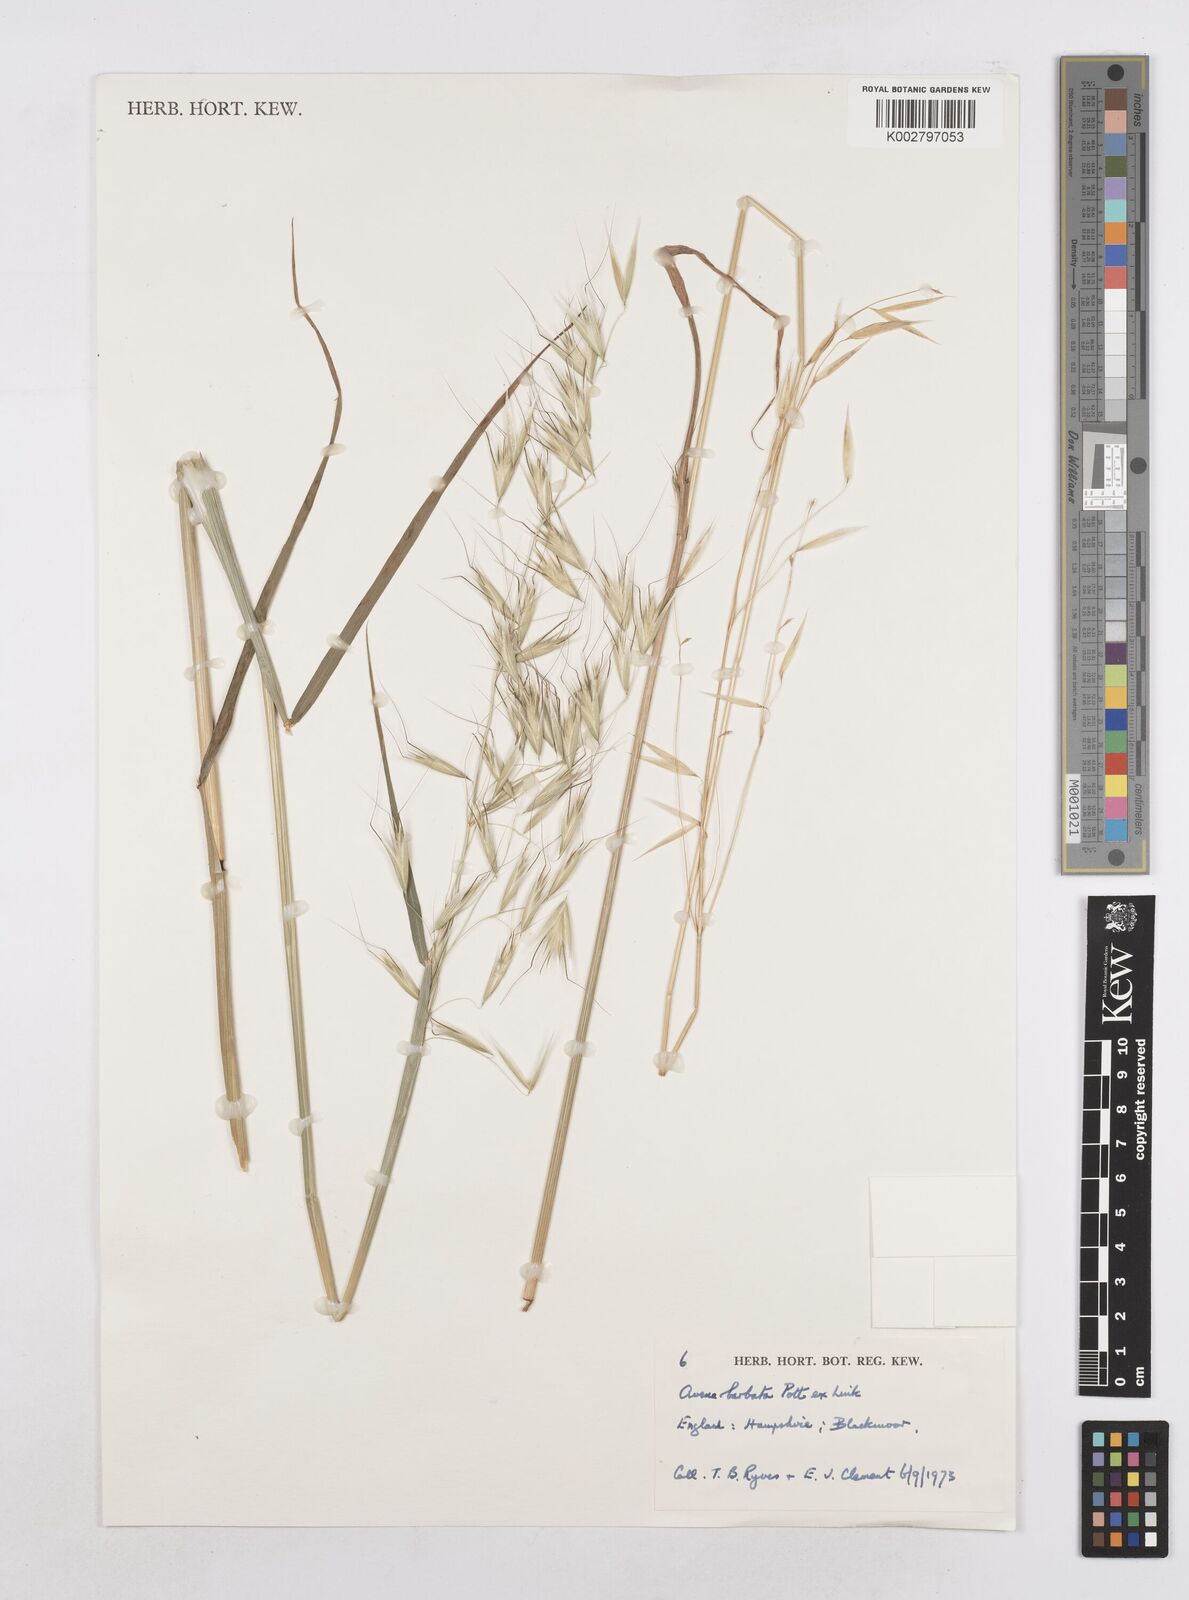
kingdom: Plantae
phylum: Tracheophyta
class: Liliopsida
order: Poales
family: Poaceae
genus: Avena
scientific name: Avena
